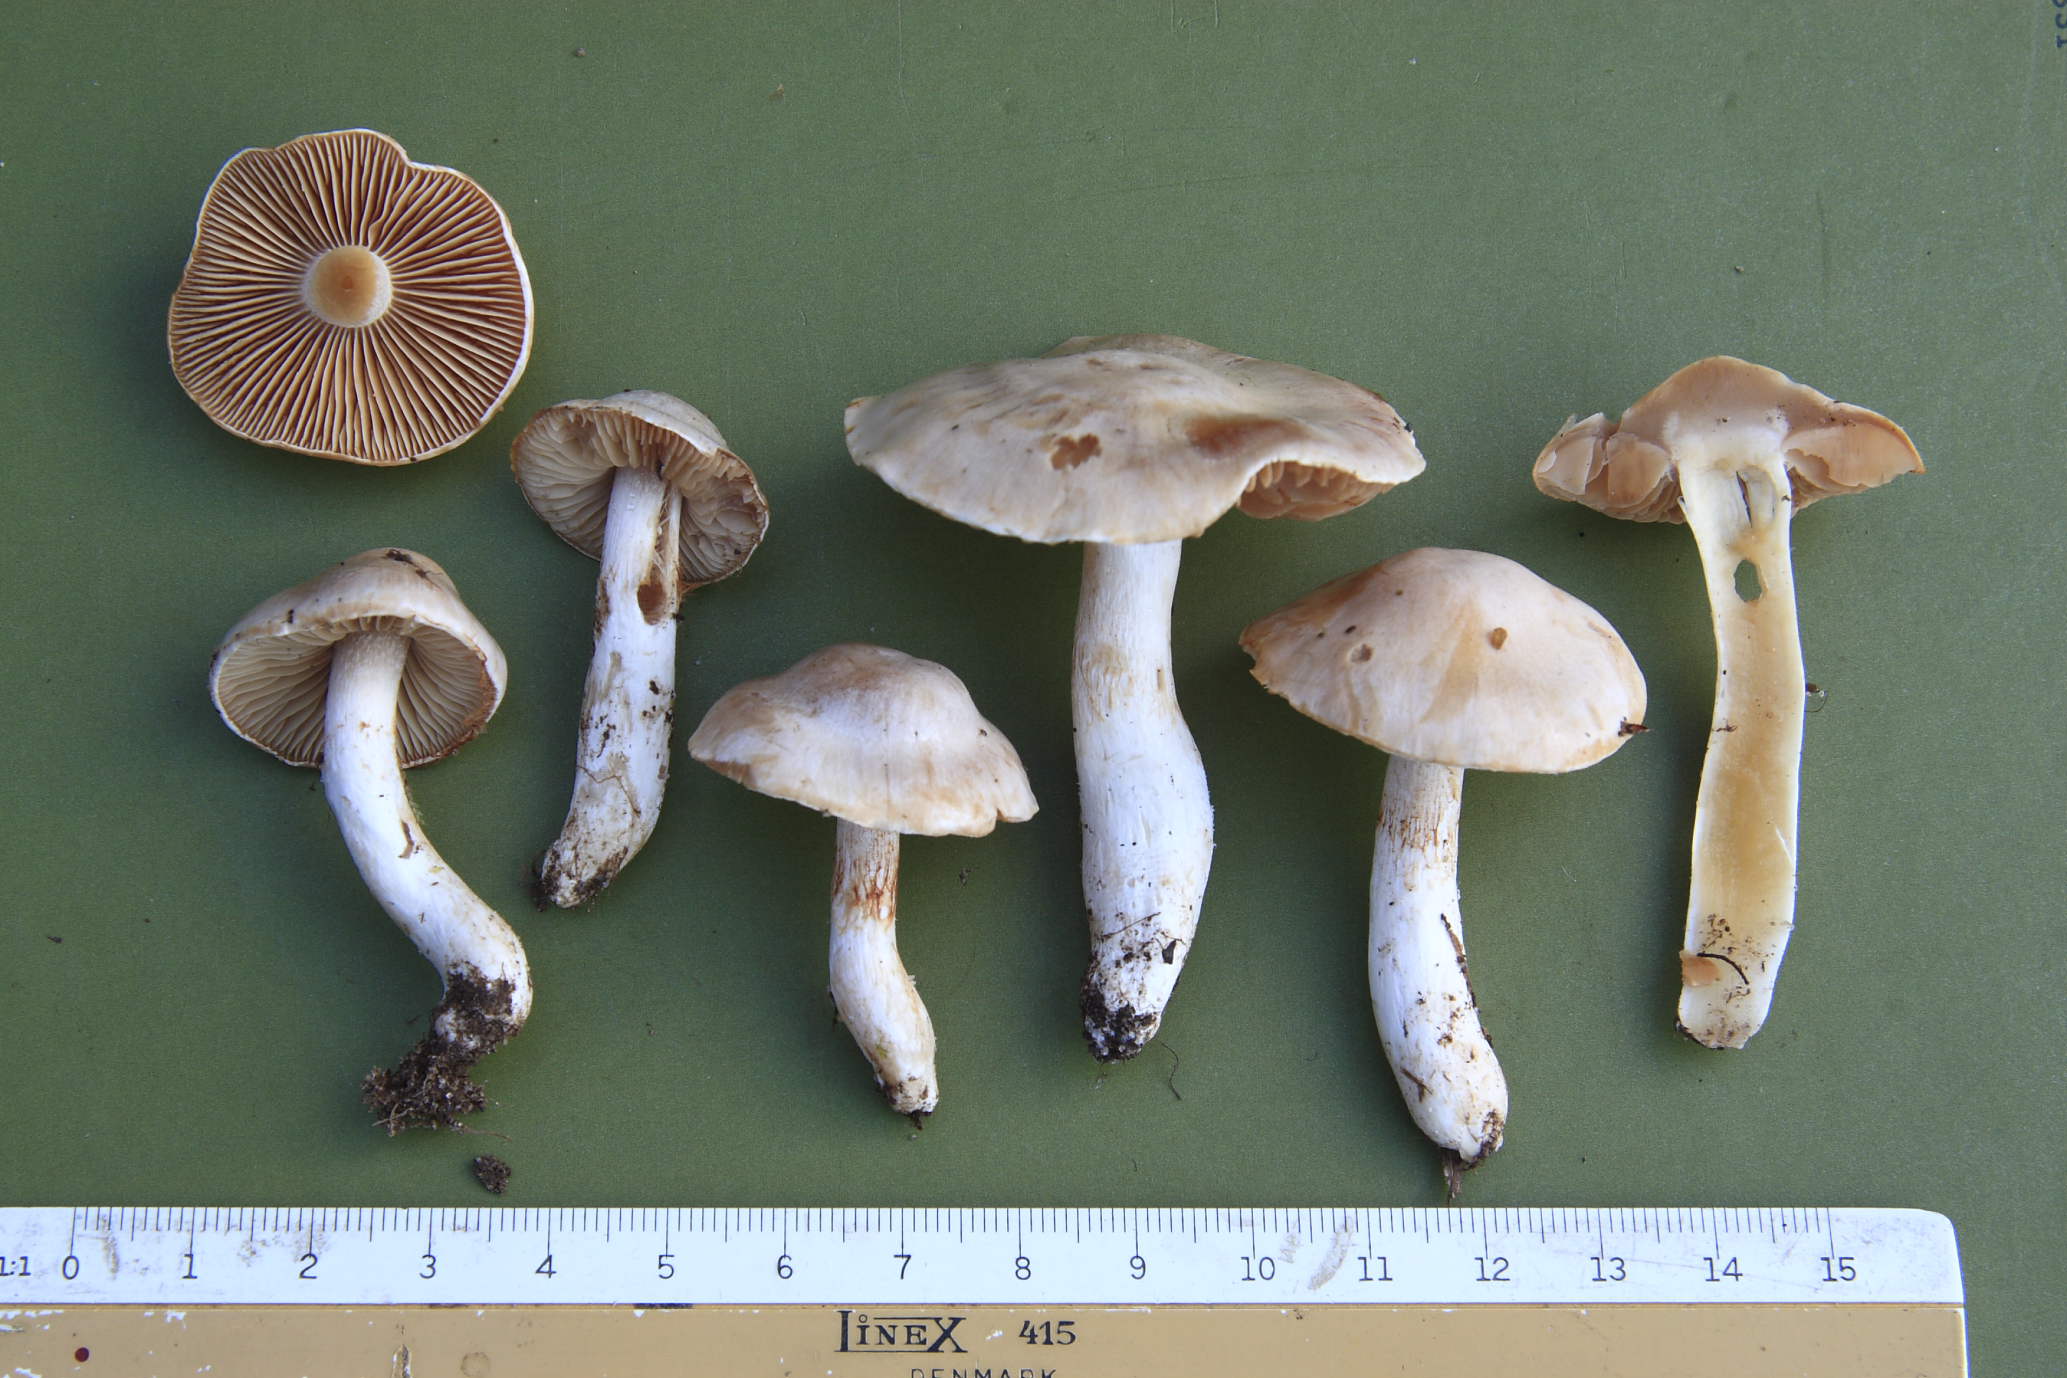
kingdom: Fungi
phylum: Basidiomycota
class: Agaricomycetes
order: Agaricales
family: Cortinariaceae
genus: Thaxterogaster
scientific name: Thaxterogaster barbatus
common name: elfenbens-slørhat
